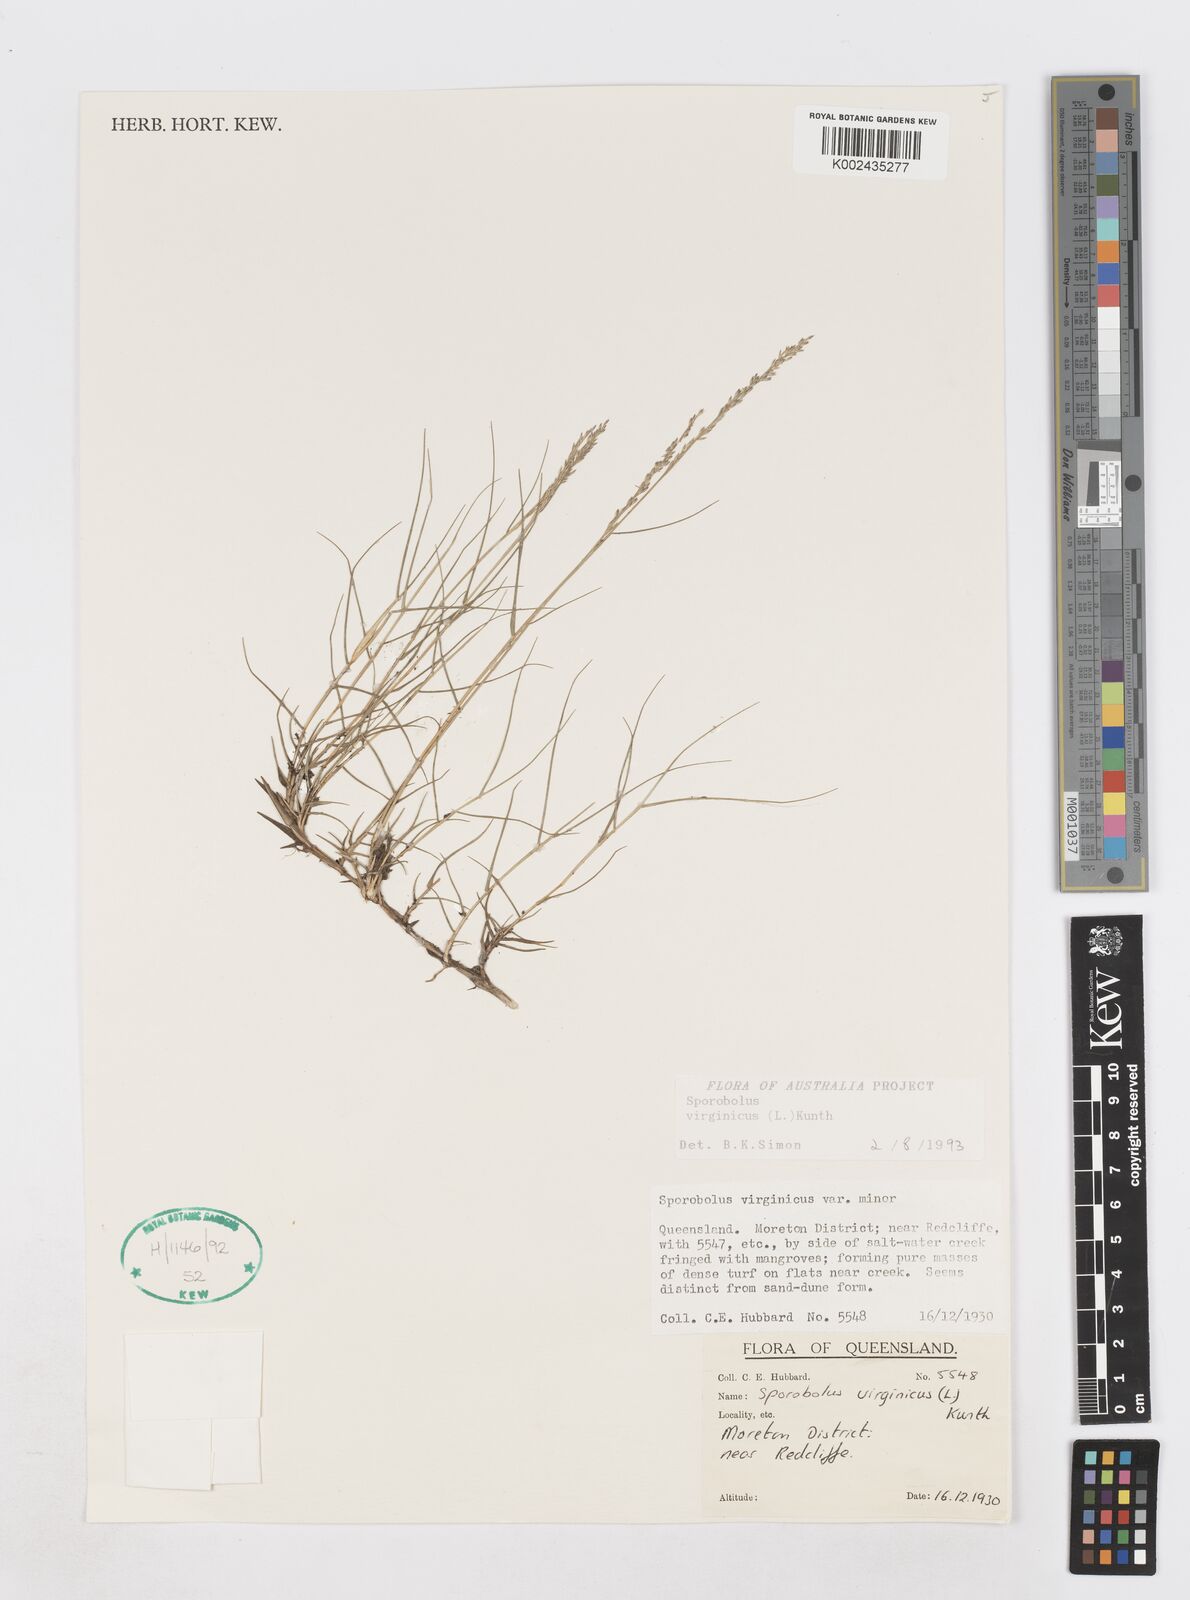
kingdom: Plantae
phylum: Tracheophyta
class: Liliopsida
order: Poales
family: Poaceae
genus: Sporobolus
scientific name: Sporobolus virginicus
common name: Beach dropseed
